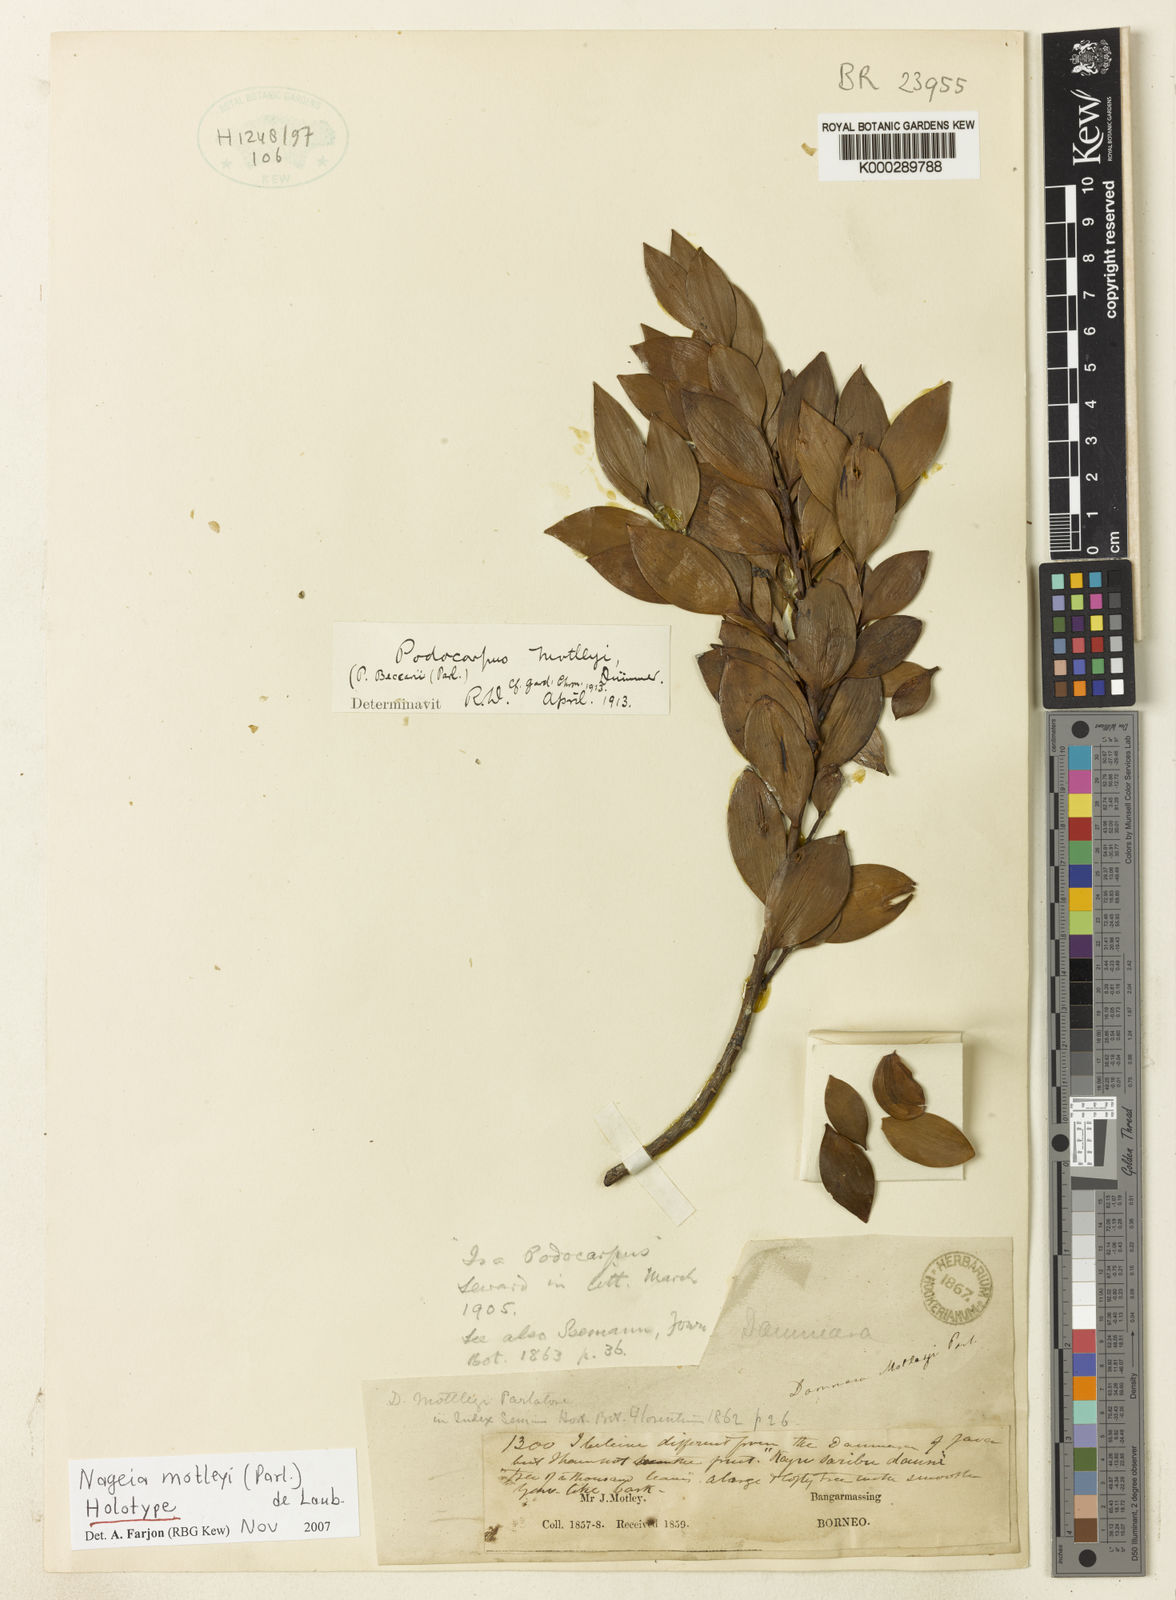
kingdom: Plantae
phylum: Tracheophyta
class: Pinopsida
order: Pinales
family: Podocarpaceae
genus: Nageia
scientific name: Nageia motleyi
